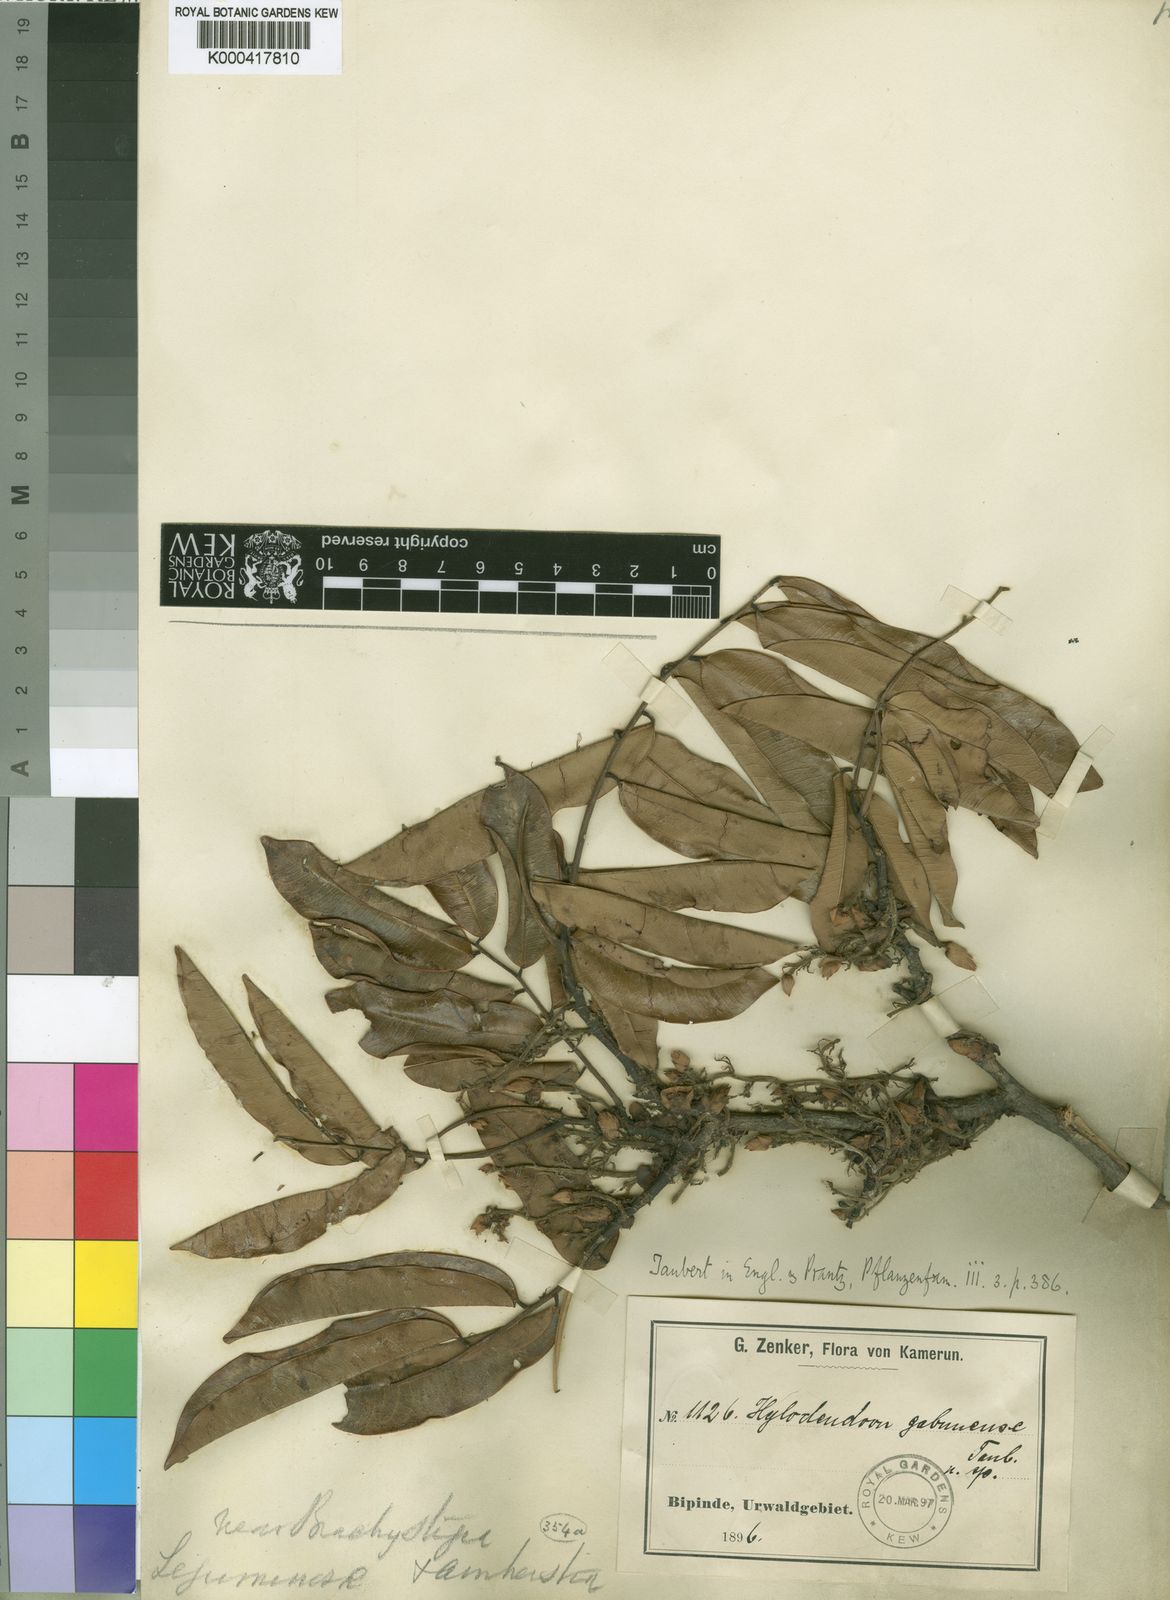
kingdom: Plantae
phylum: Tracheophyta
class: Magnoliopsida
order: Fabales
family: Fabaceae
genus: Hylodendron
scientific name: Hylodendron gabunense
